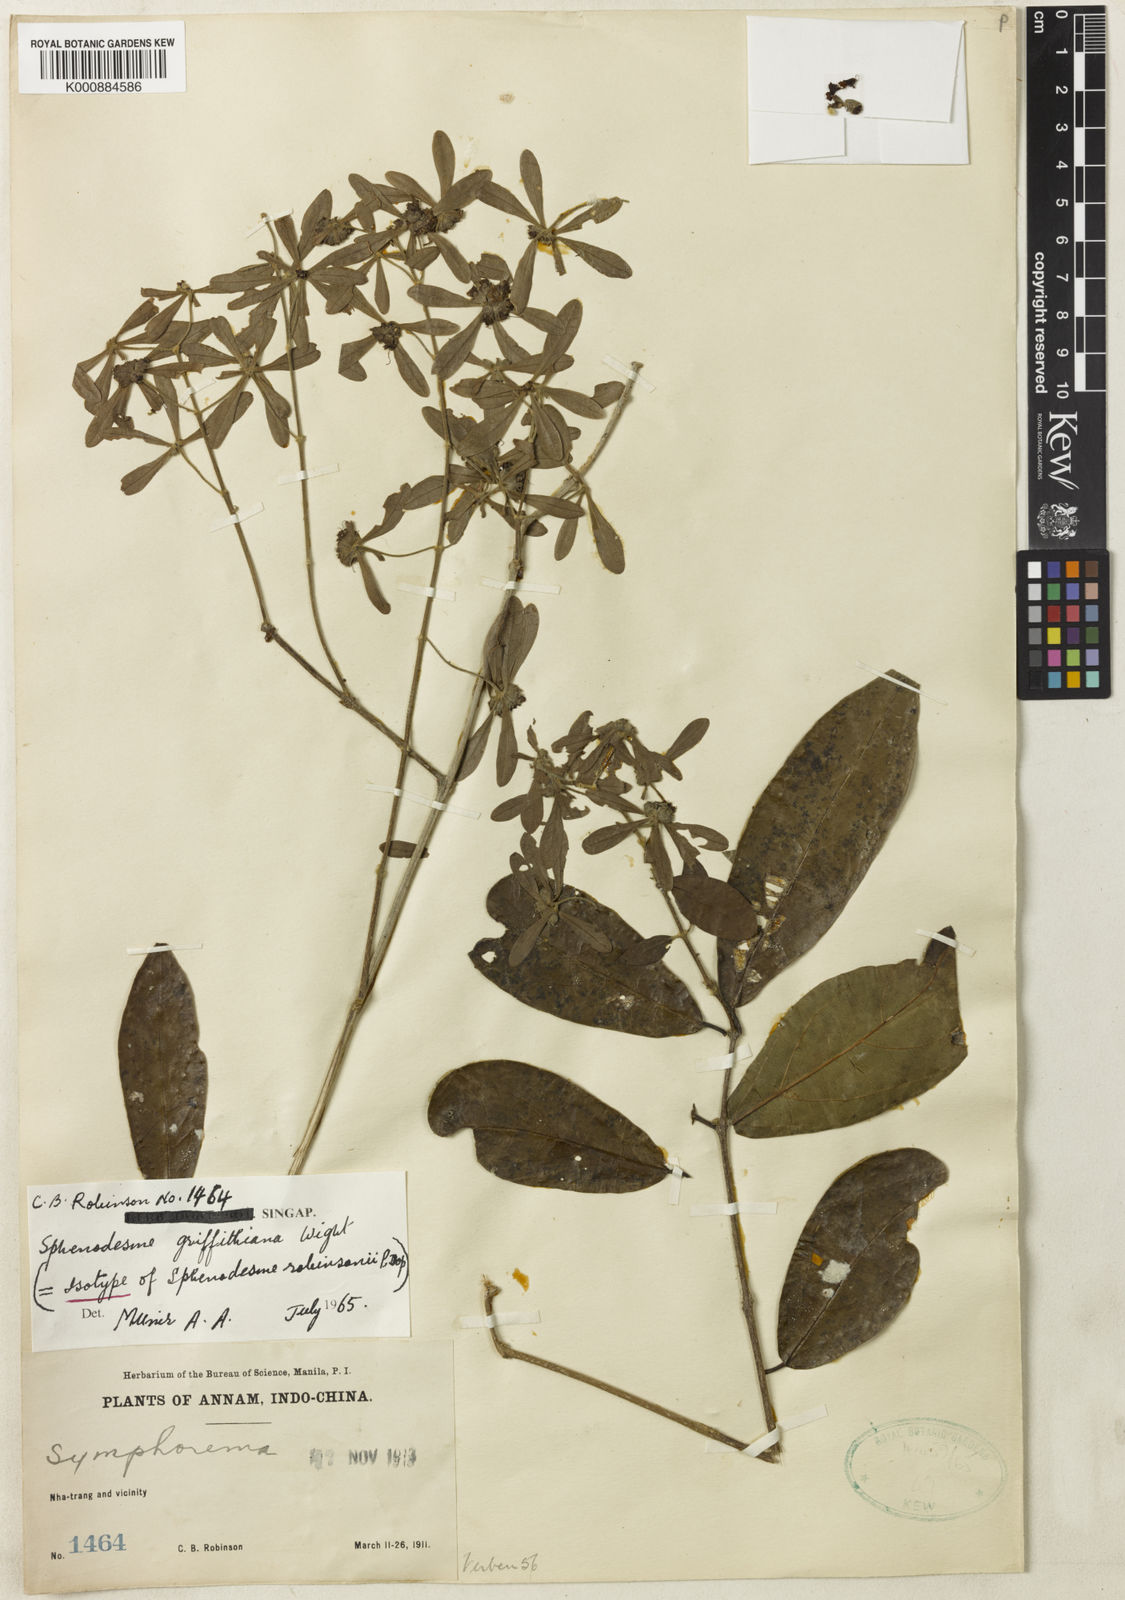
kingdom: Plantae
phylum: Tracheophyta
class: Magnoliopsida
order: Lamiales
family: Lamiaceae
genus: Sphenodesme
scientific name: Sphenodesme griffithiana
